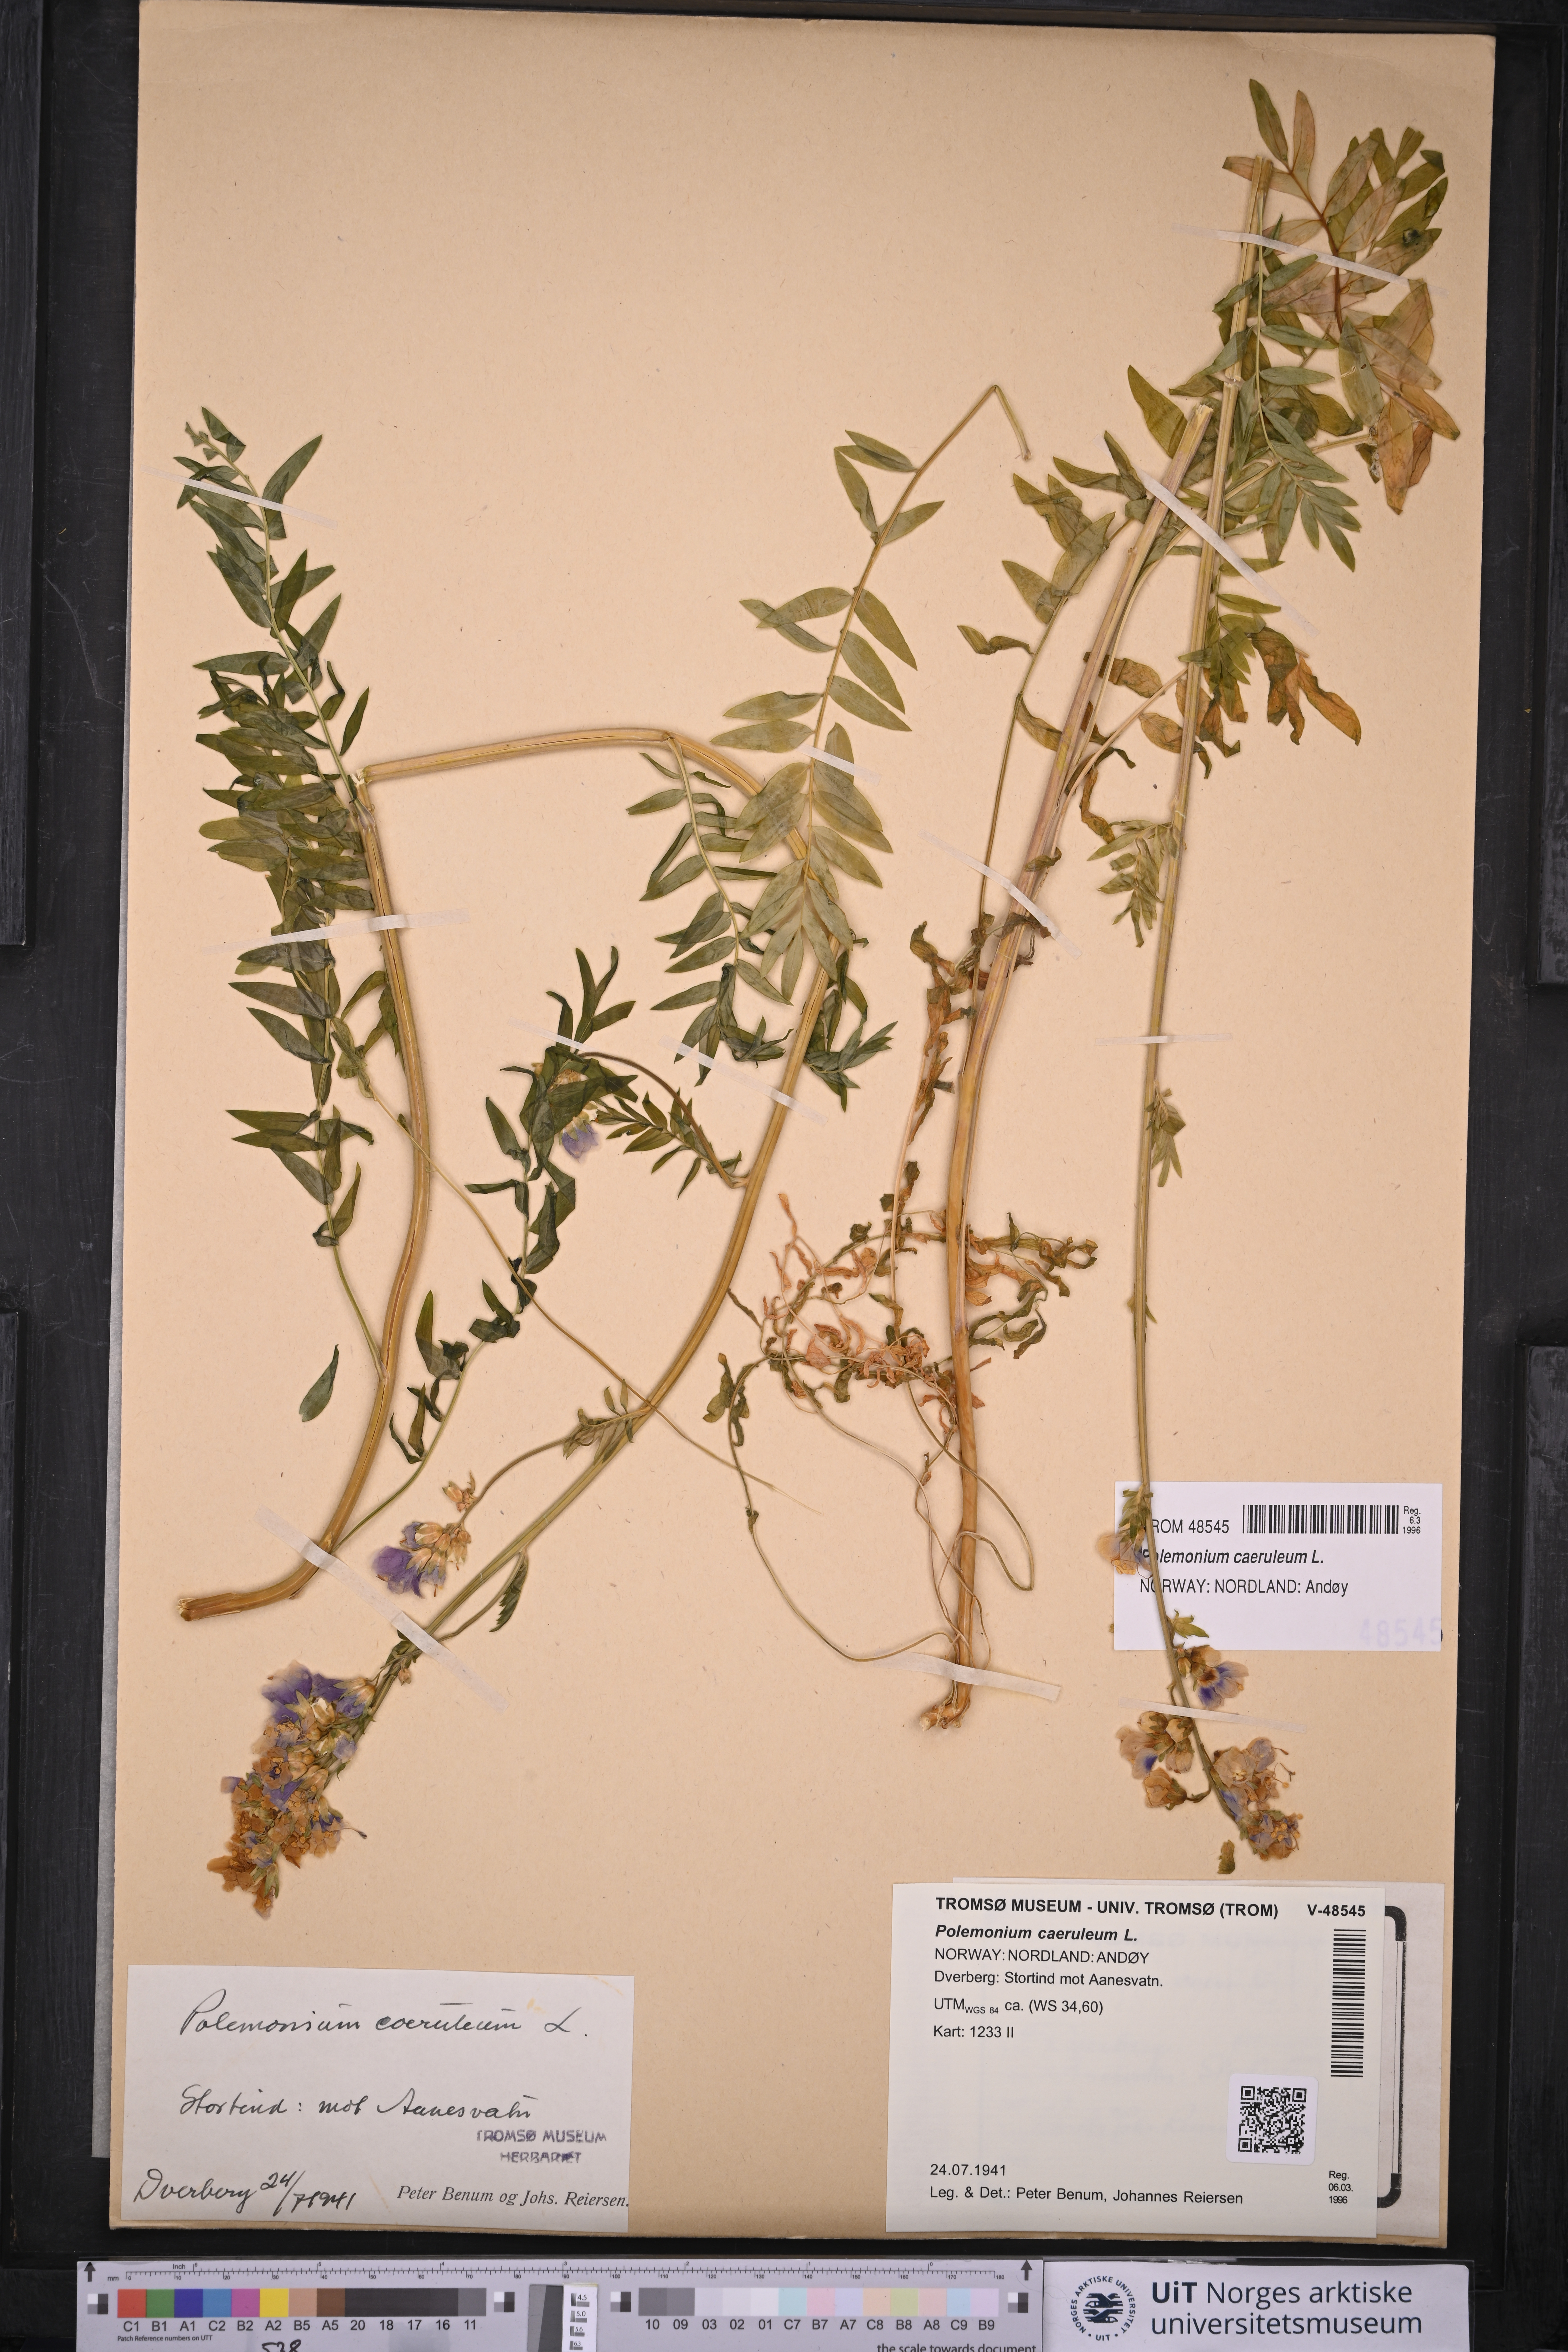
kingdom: Plantae
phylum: Tracheophyta
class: Magnoliopsida
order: Ericales
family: Polemoniaceae
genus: Polemonium
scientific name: Polemonium caeruleum
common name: Jacob's-ladder
